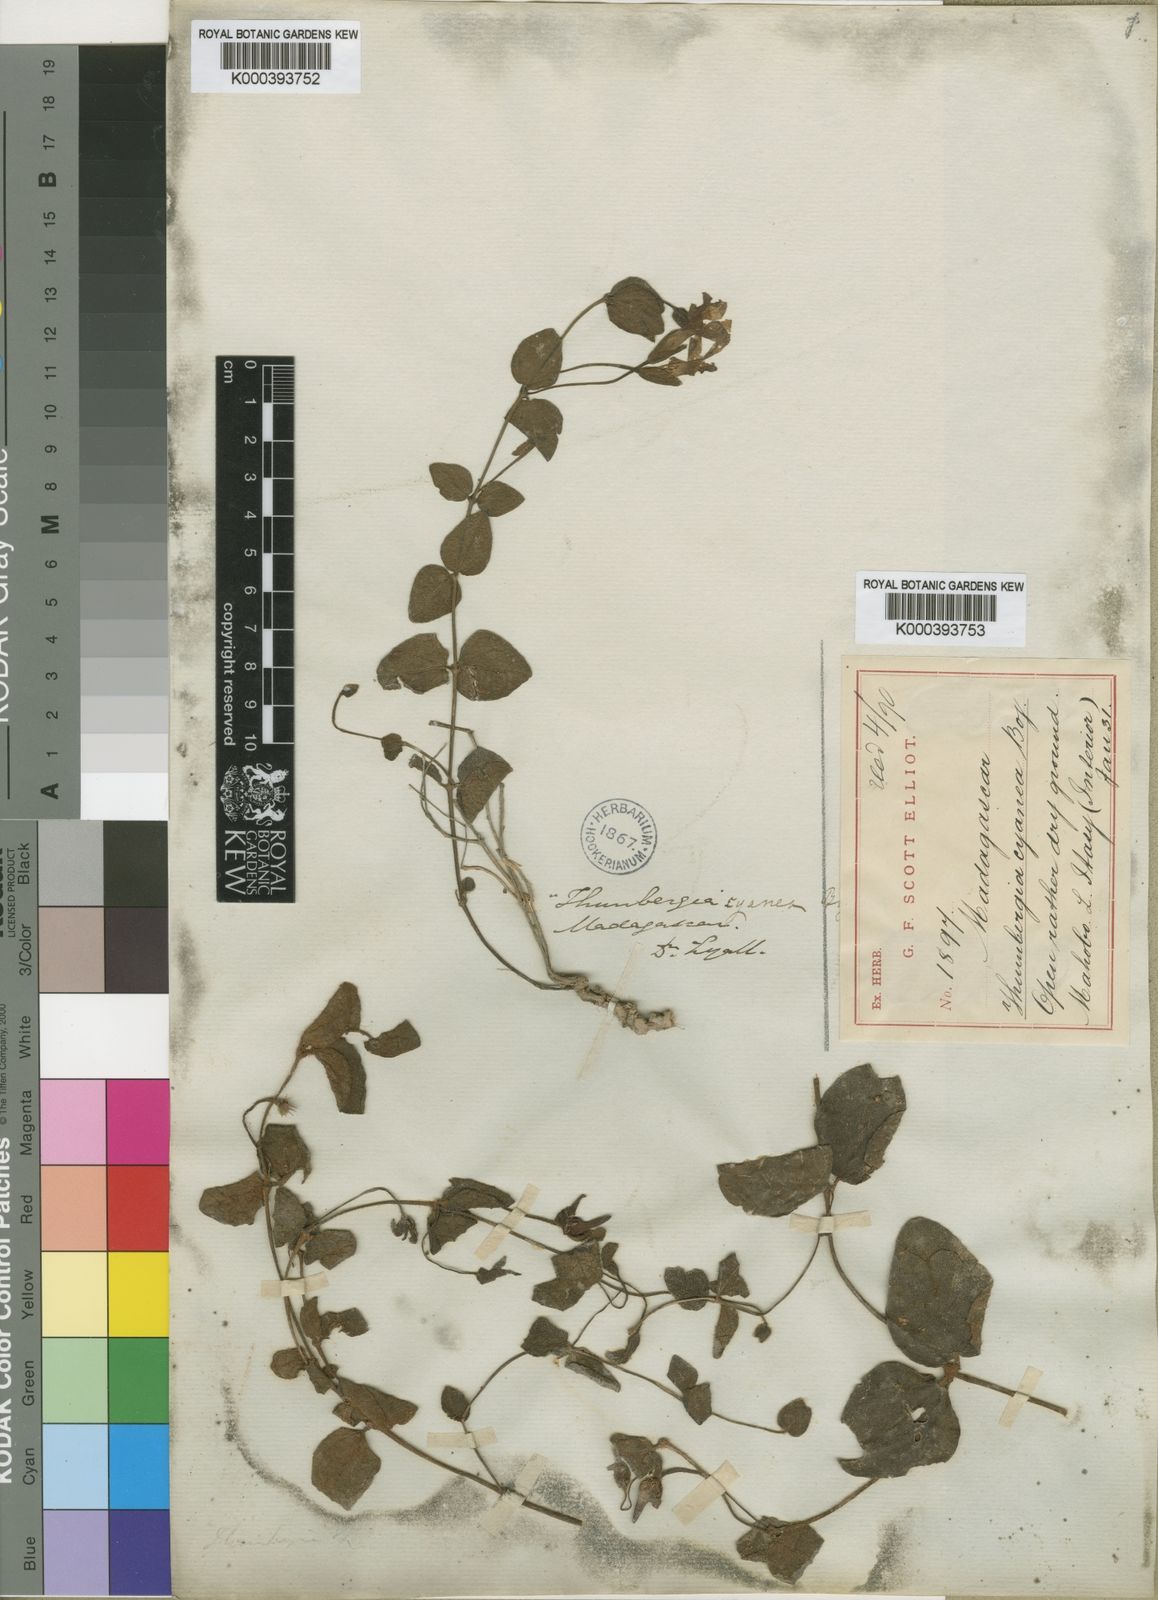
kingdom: Plantae
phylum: Tracheophyta
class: Magnoliopsida
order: Lamiales
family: Acanthaceae
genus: Thunbergia
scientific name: Thunbergia
